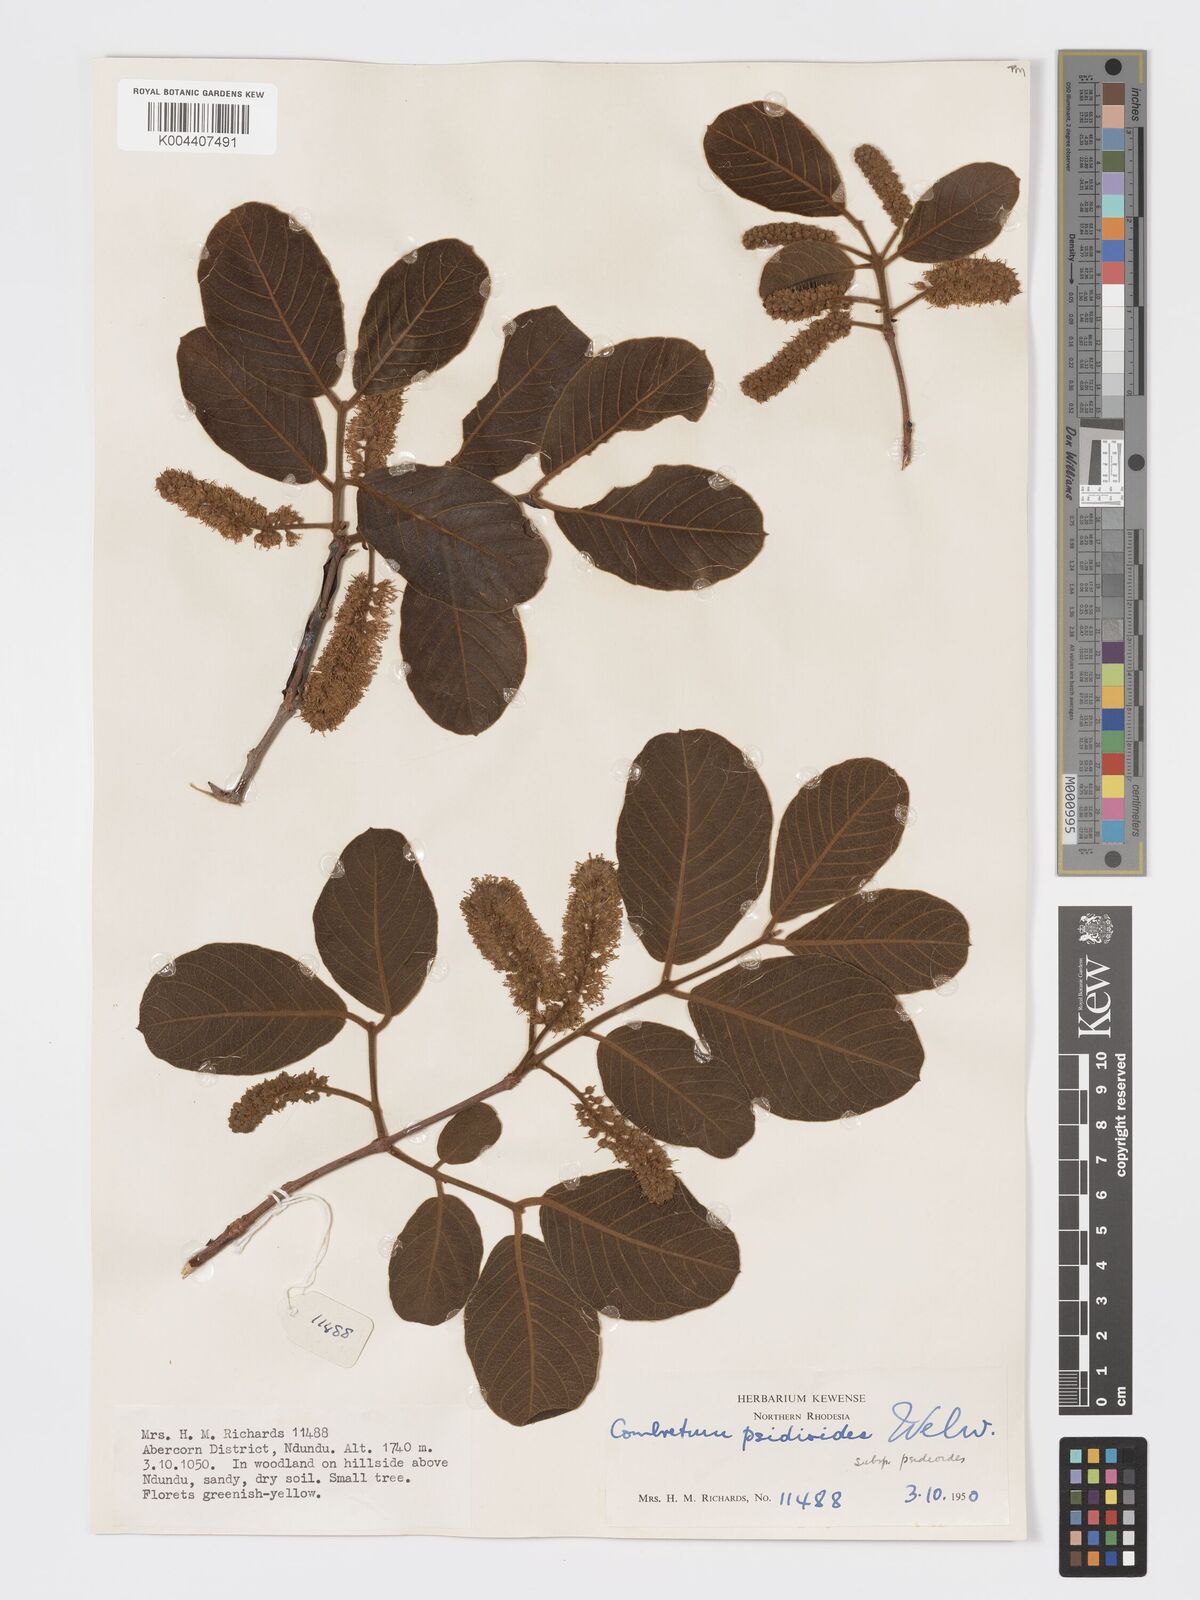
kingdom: Plantae
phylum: Tracheophyta
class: Magnoliopsida
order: Myrtales
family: Combretaceae
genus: Combretum
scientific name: Combretum psidioides
